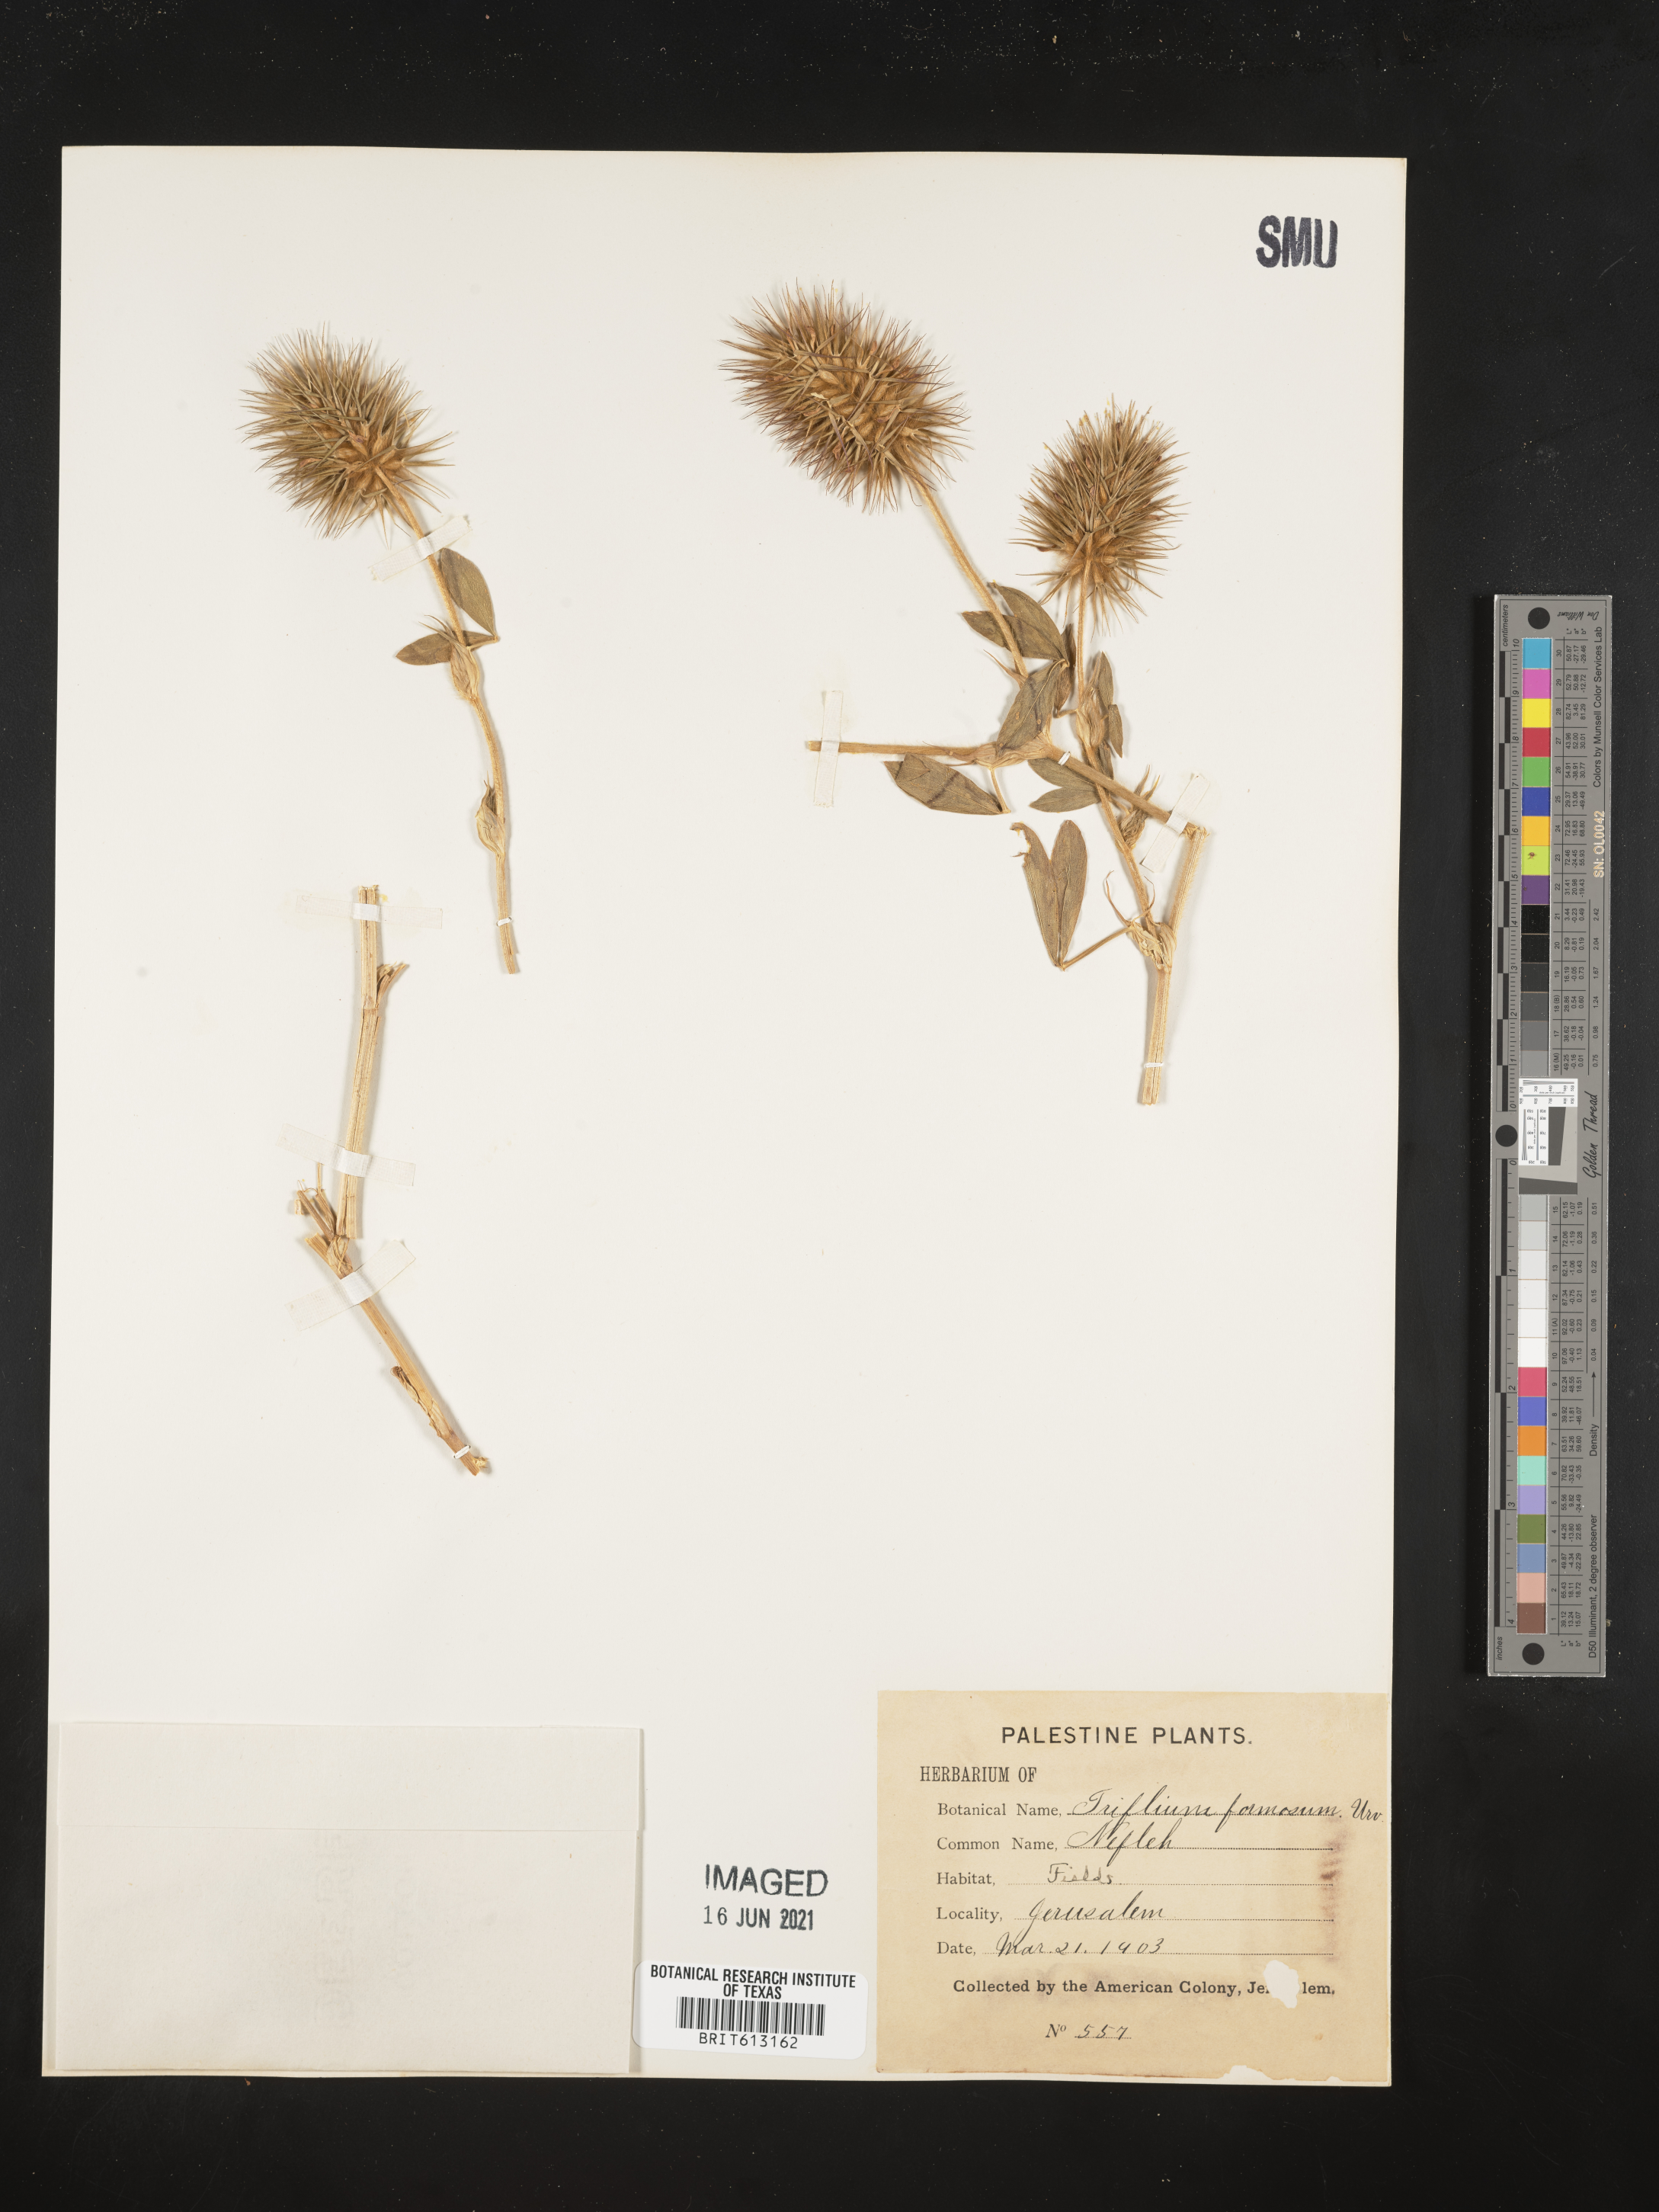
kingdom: Plantae
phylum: Tracheophyta
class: Magnoliopsida
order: Fabales
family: Fabaceae
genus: Trifolium
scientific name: Trifolium
